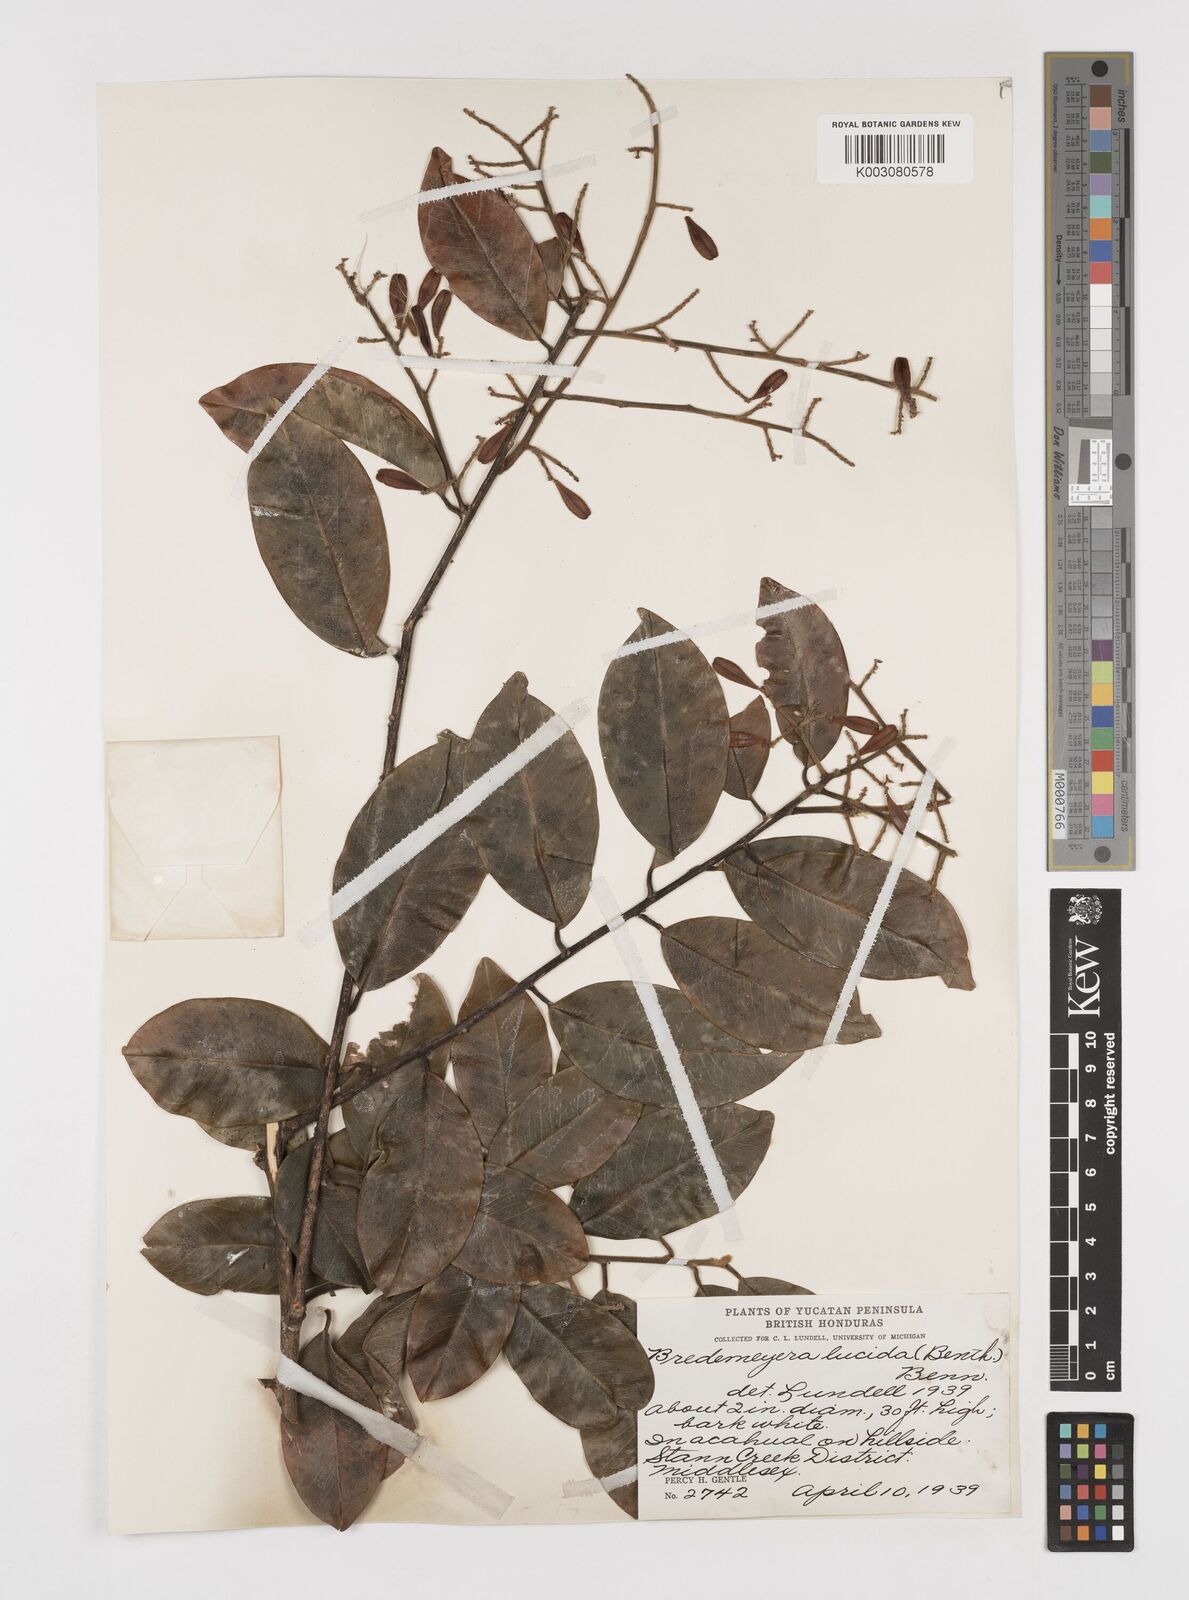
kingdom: Plantae
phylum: Tracheophyta
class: Magnoliopsida
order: Fabales
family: Polygalaceae
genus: Bredemeyera
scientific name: Bredemeyera lucida
